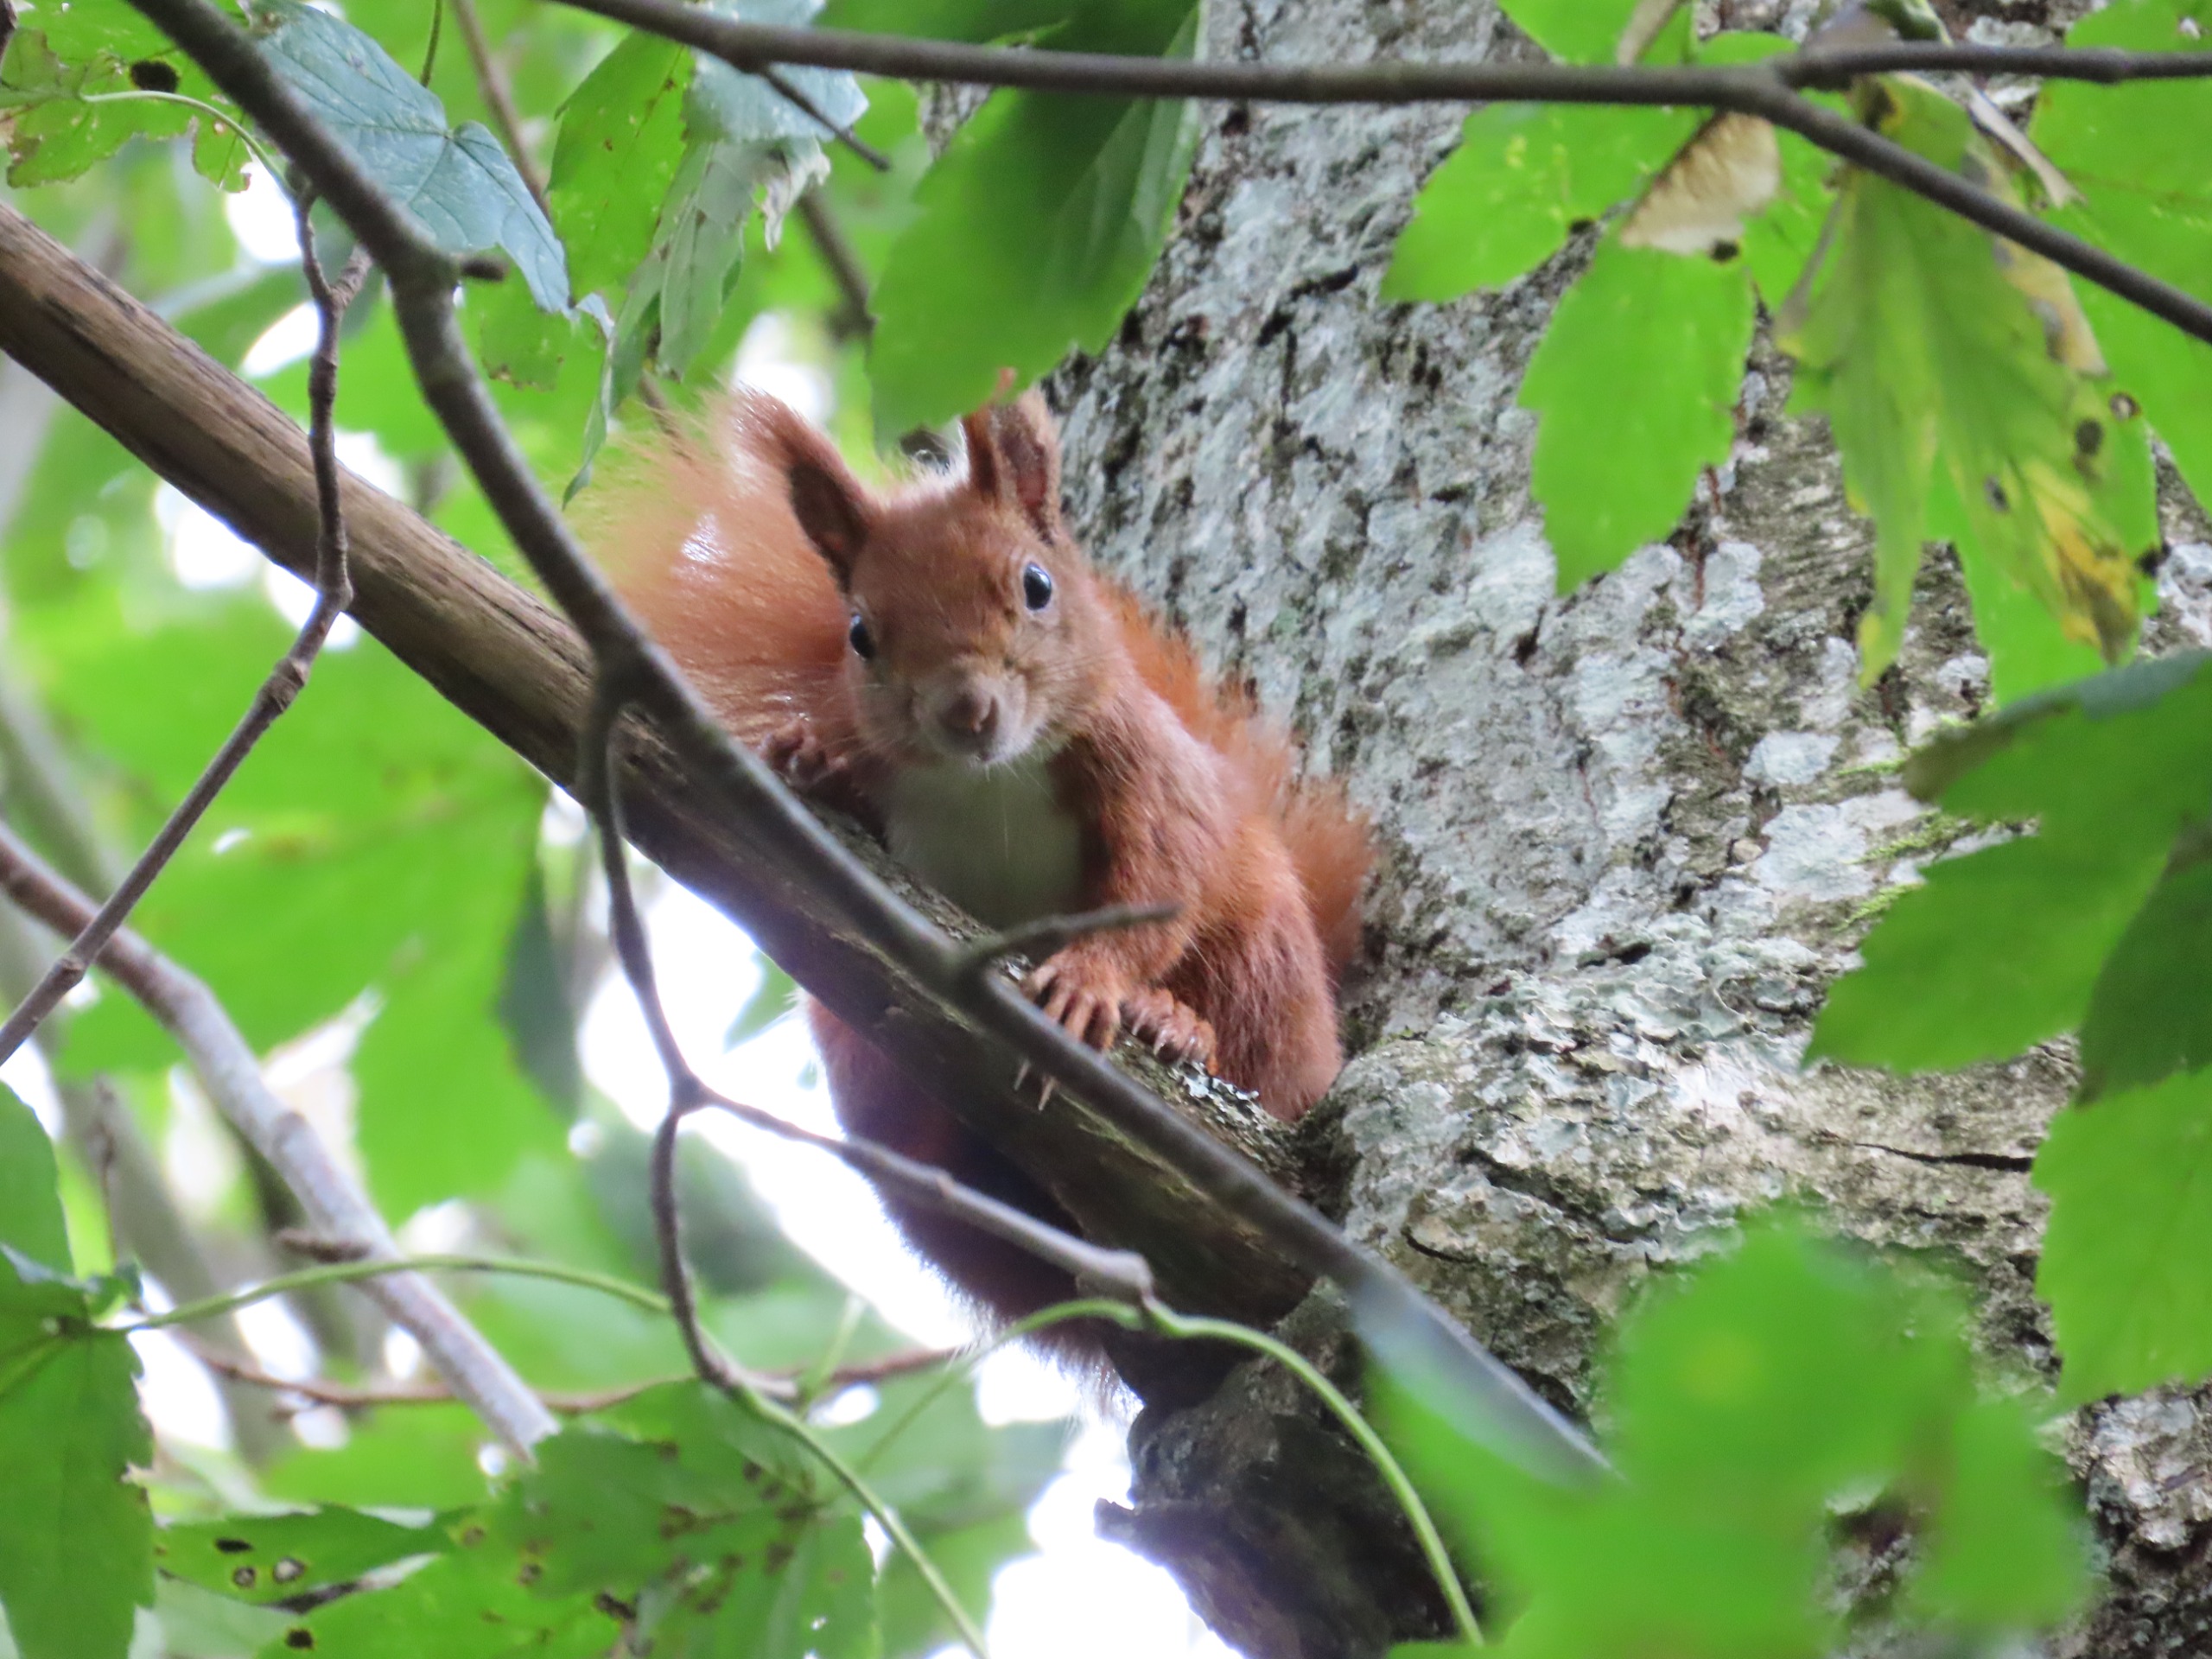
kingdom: Animalia
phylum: Chordata
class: Mammalia
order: Rodentia
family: Sciuridae
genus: Sciurus
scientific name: Sciurus vulgaris
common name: Egern
